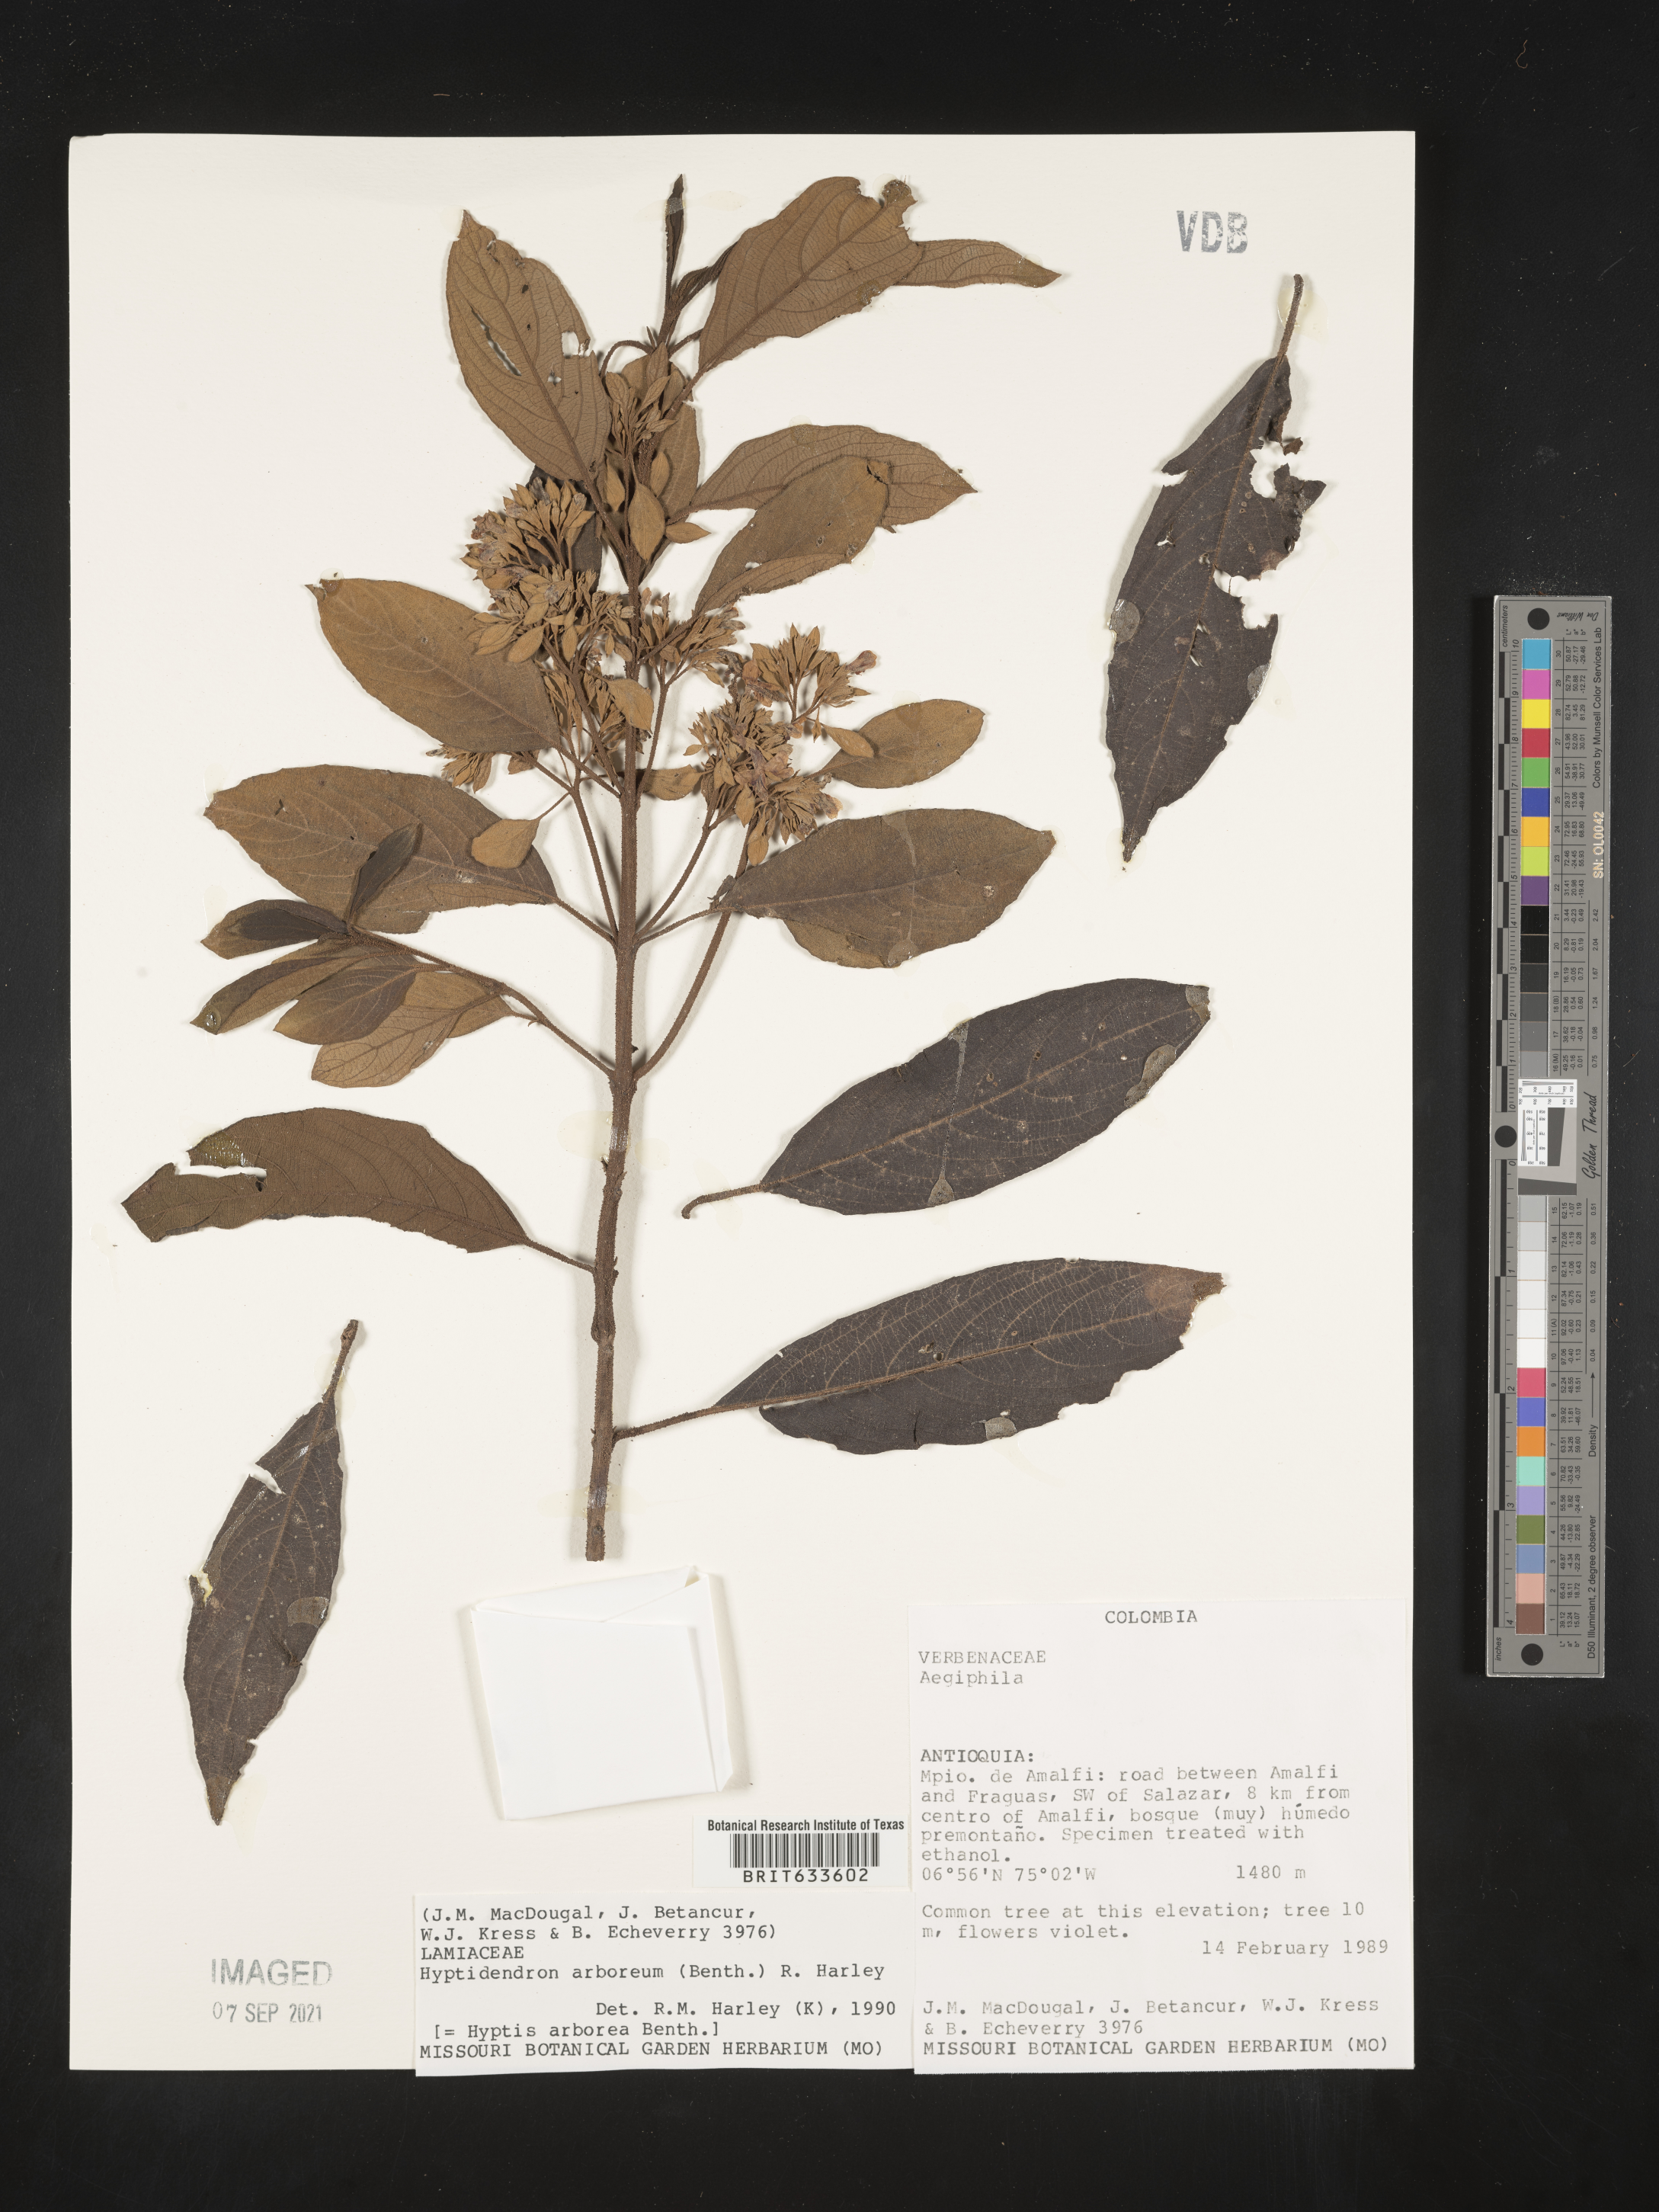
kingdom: Plantae
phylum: Tracheophyta
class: Magnoliopsida
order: Lamiales
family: Lamiaceae
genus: Hyptidendron
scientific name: Hyptidendron
